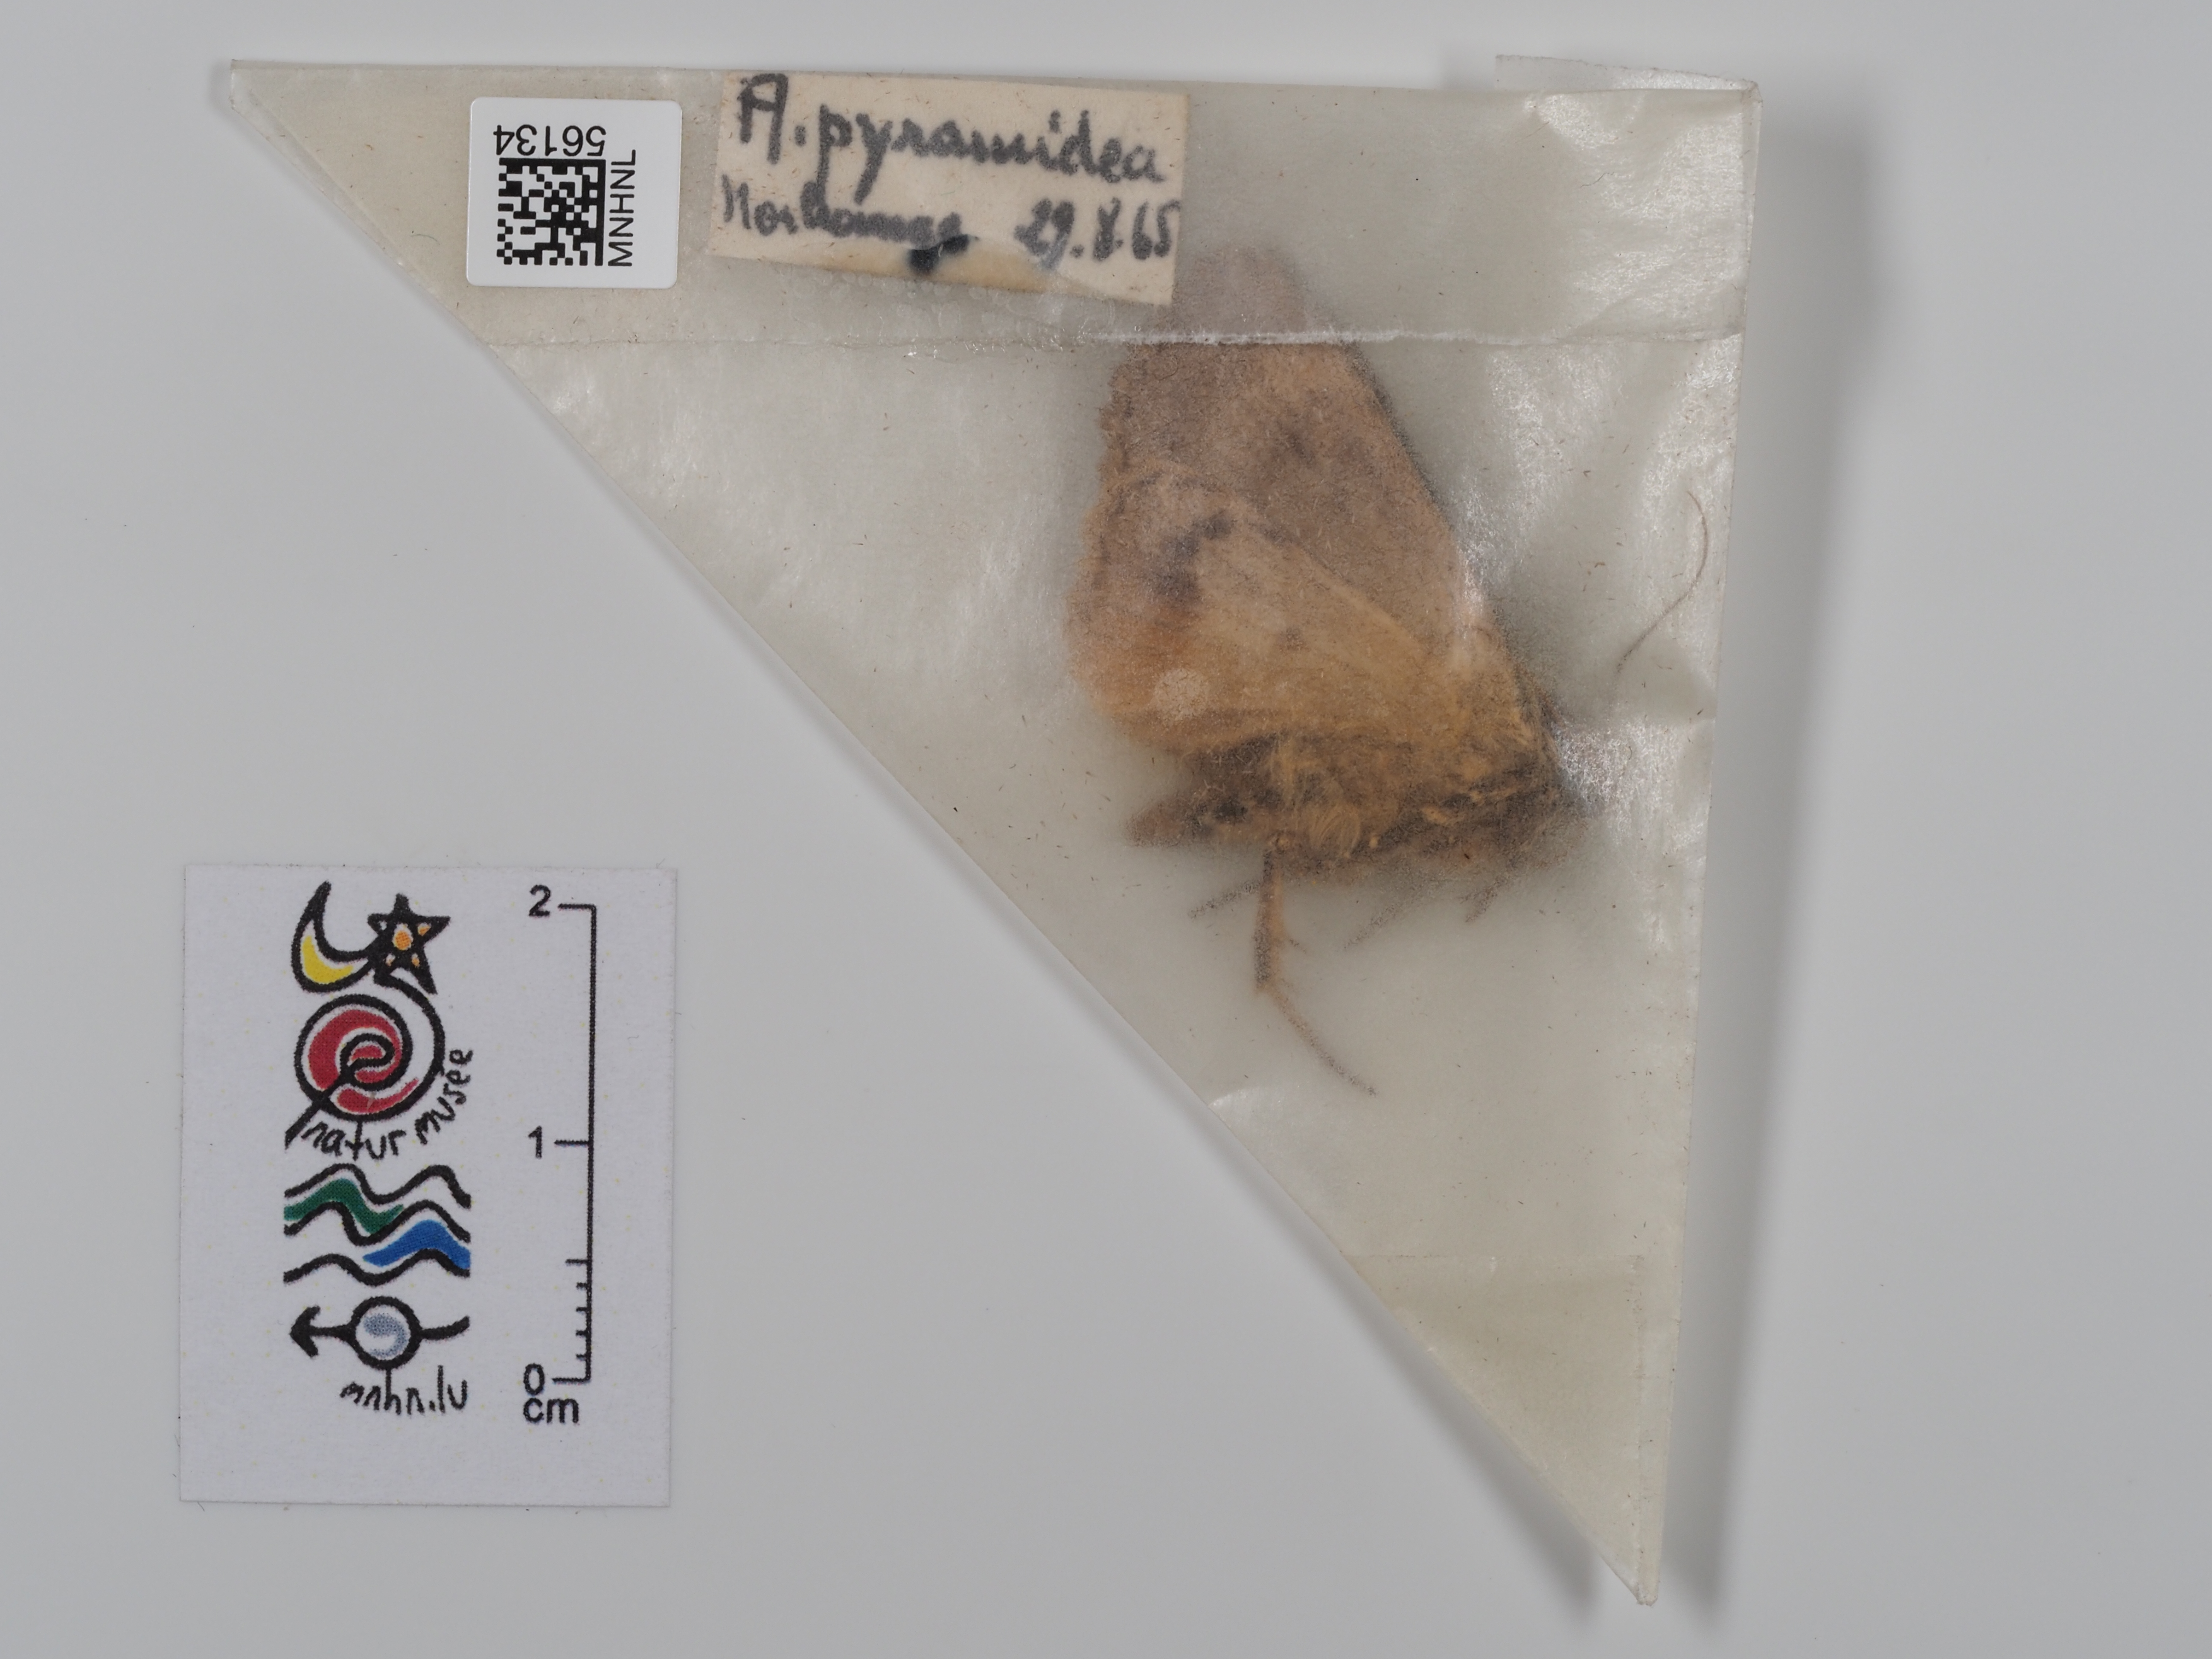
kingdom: Animalia
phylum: Arthropoda
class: Insecta
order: Lepidoptera
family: Noctuidae
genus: Amphipyra
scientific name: Amphipyra pyramidea
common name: Copper underwing
